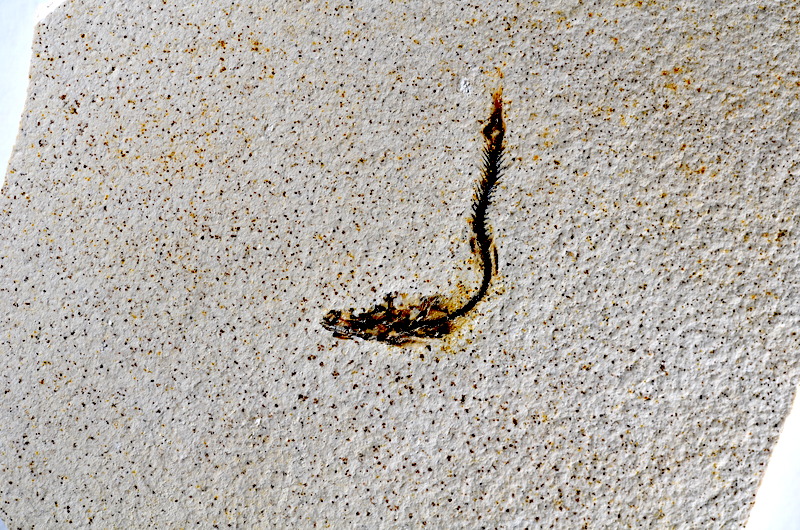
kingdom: Animalia
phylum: Chordata
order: Salmoniformes
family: Orthogonikleithridae
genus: Orthogonikleithrus
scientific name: Orthogonikleithrus hoelli
